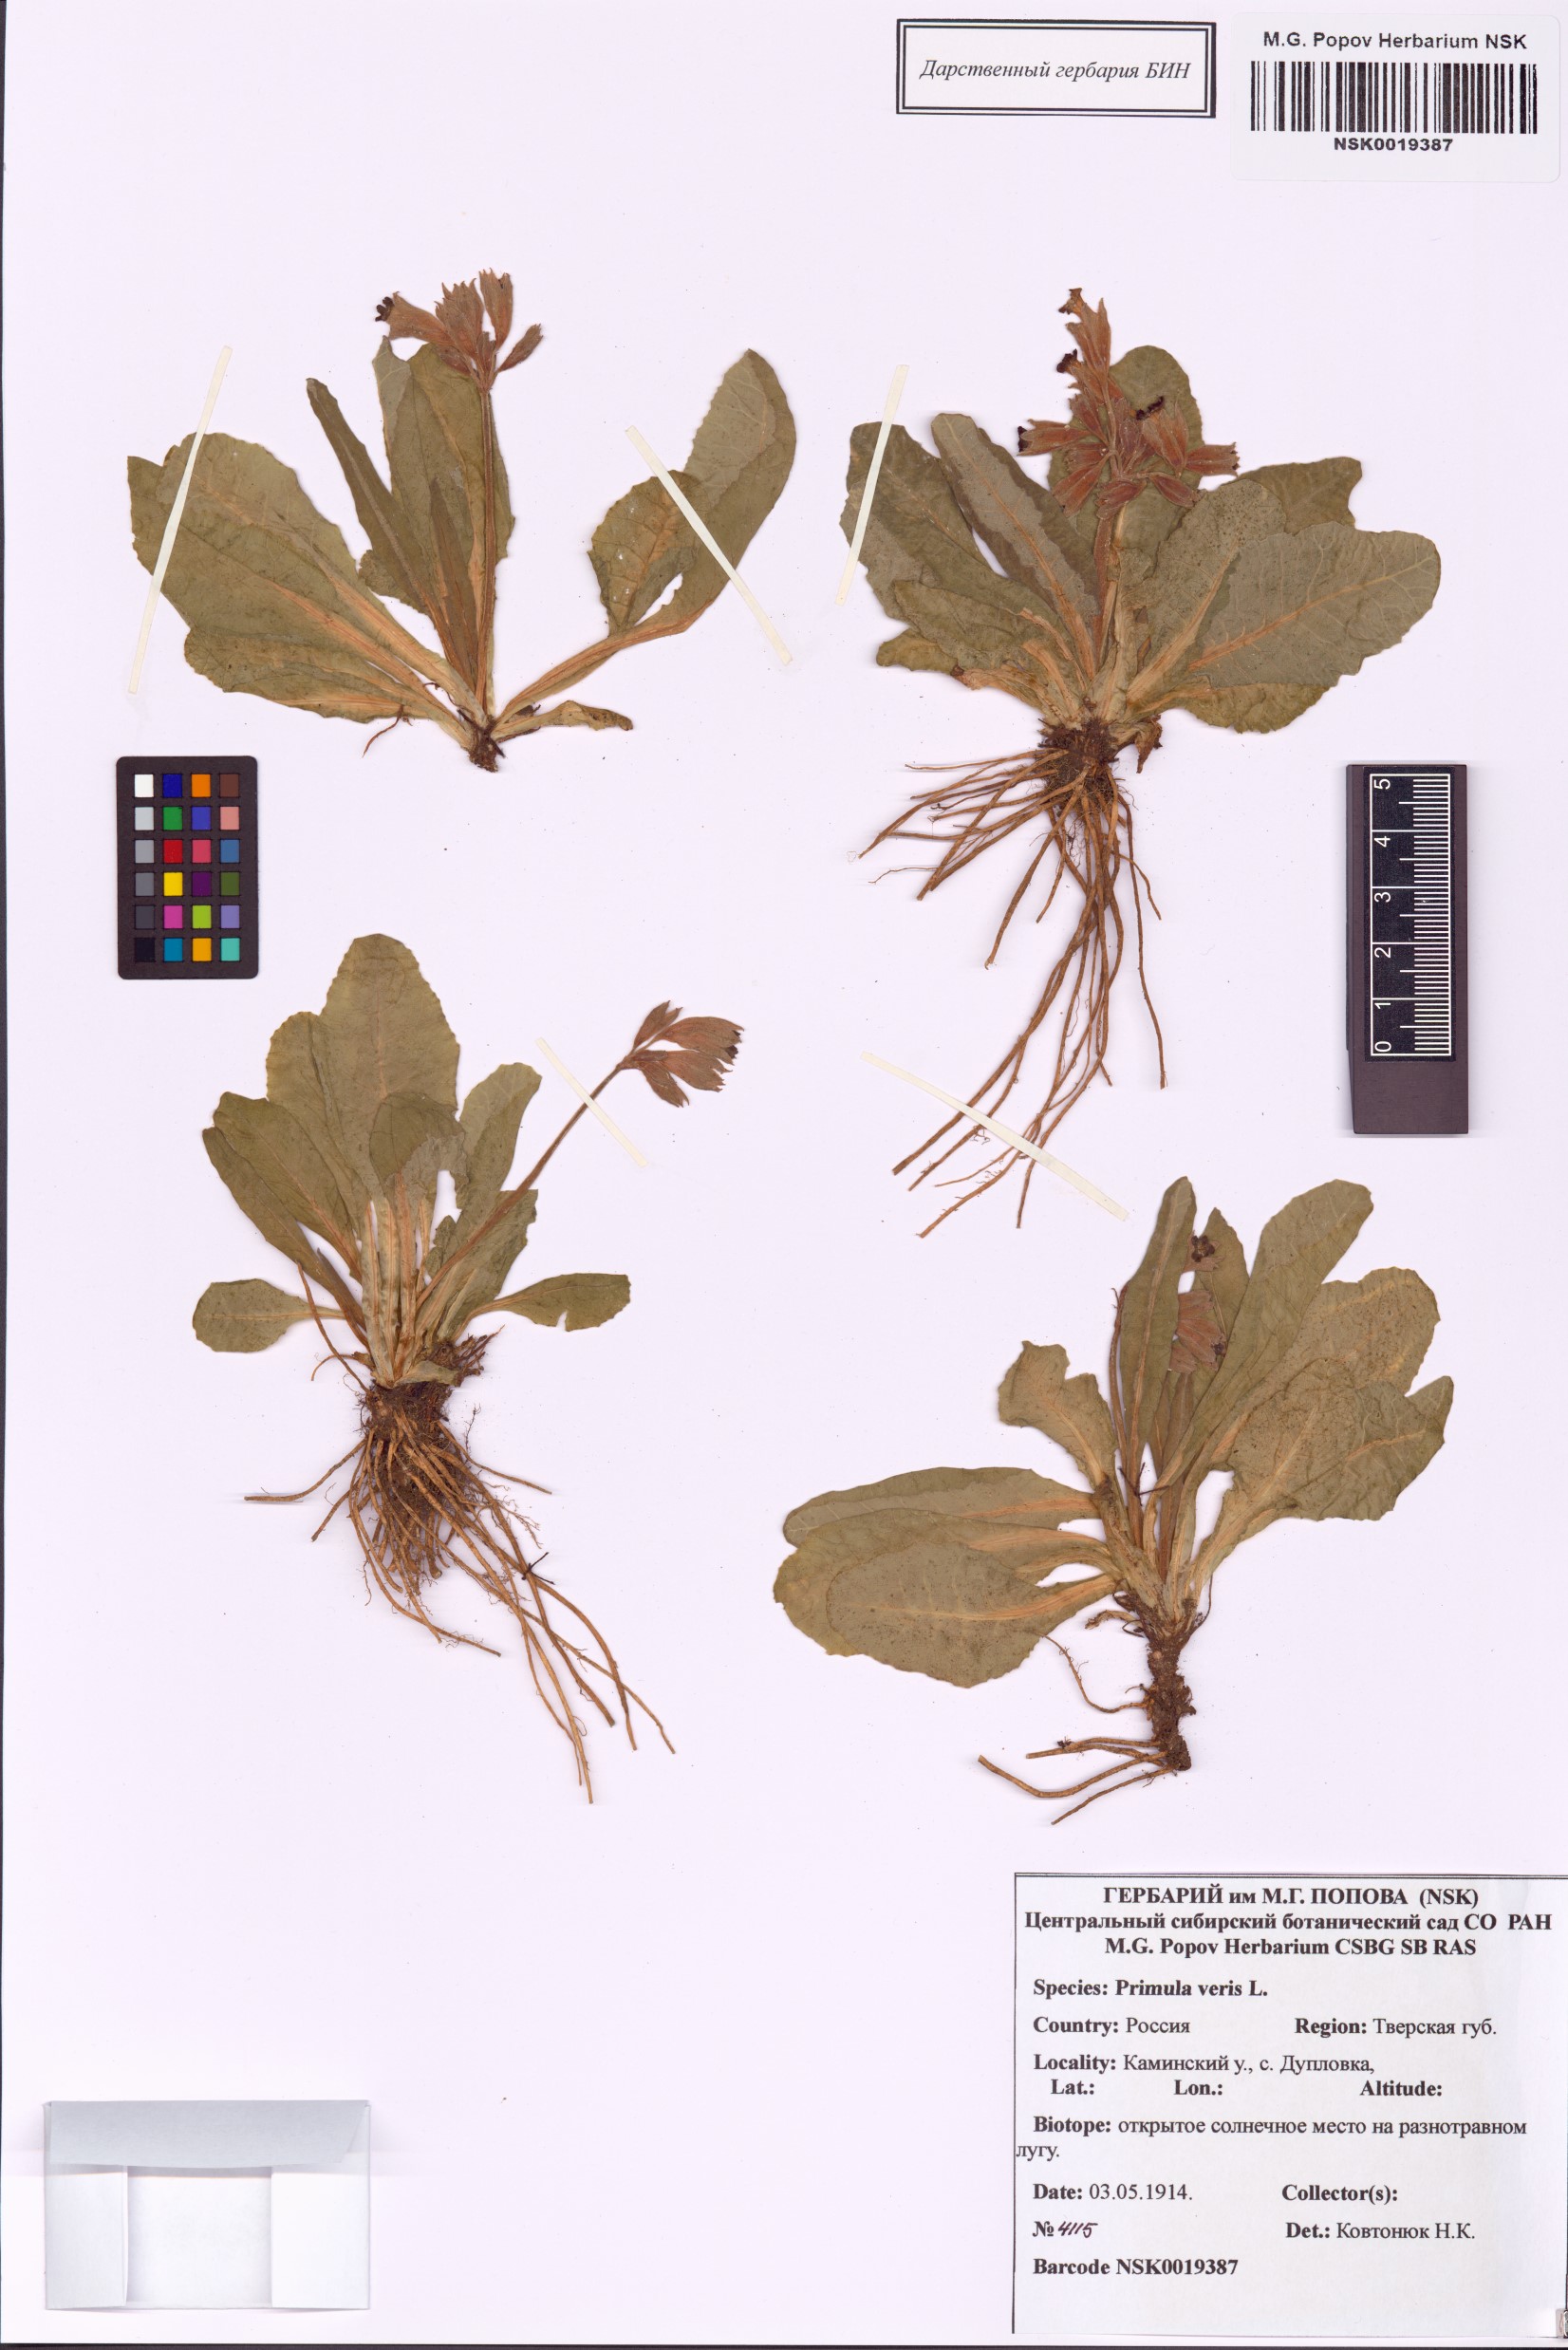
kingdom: Plantae
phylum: Tracheophyta
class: Magnoliopsida
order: Ericales
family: Primulaceae
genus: Primula
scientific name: Primula veris
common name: Cowslip
